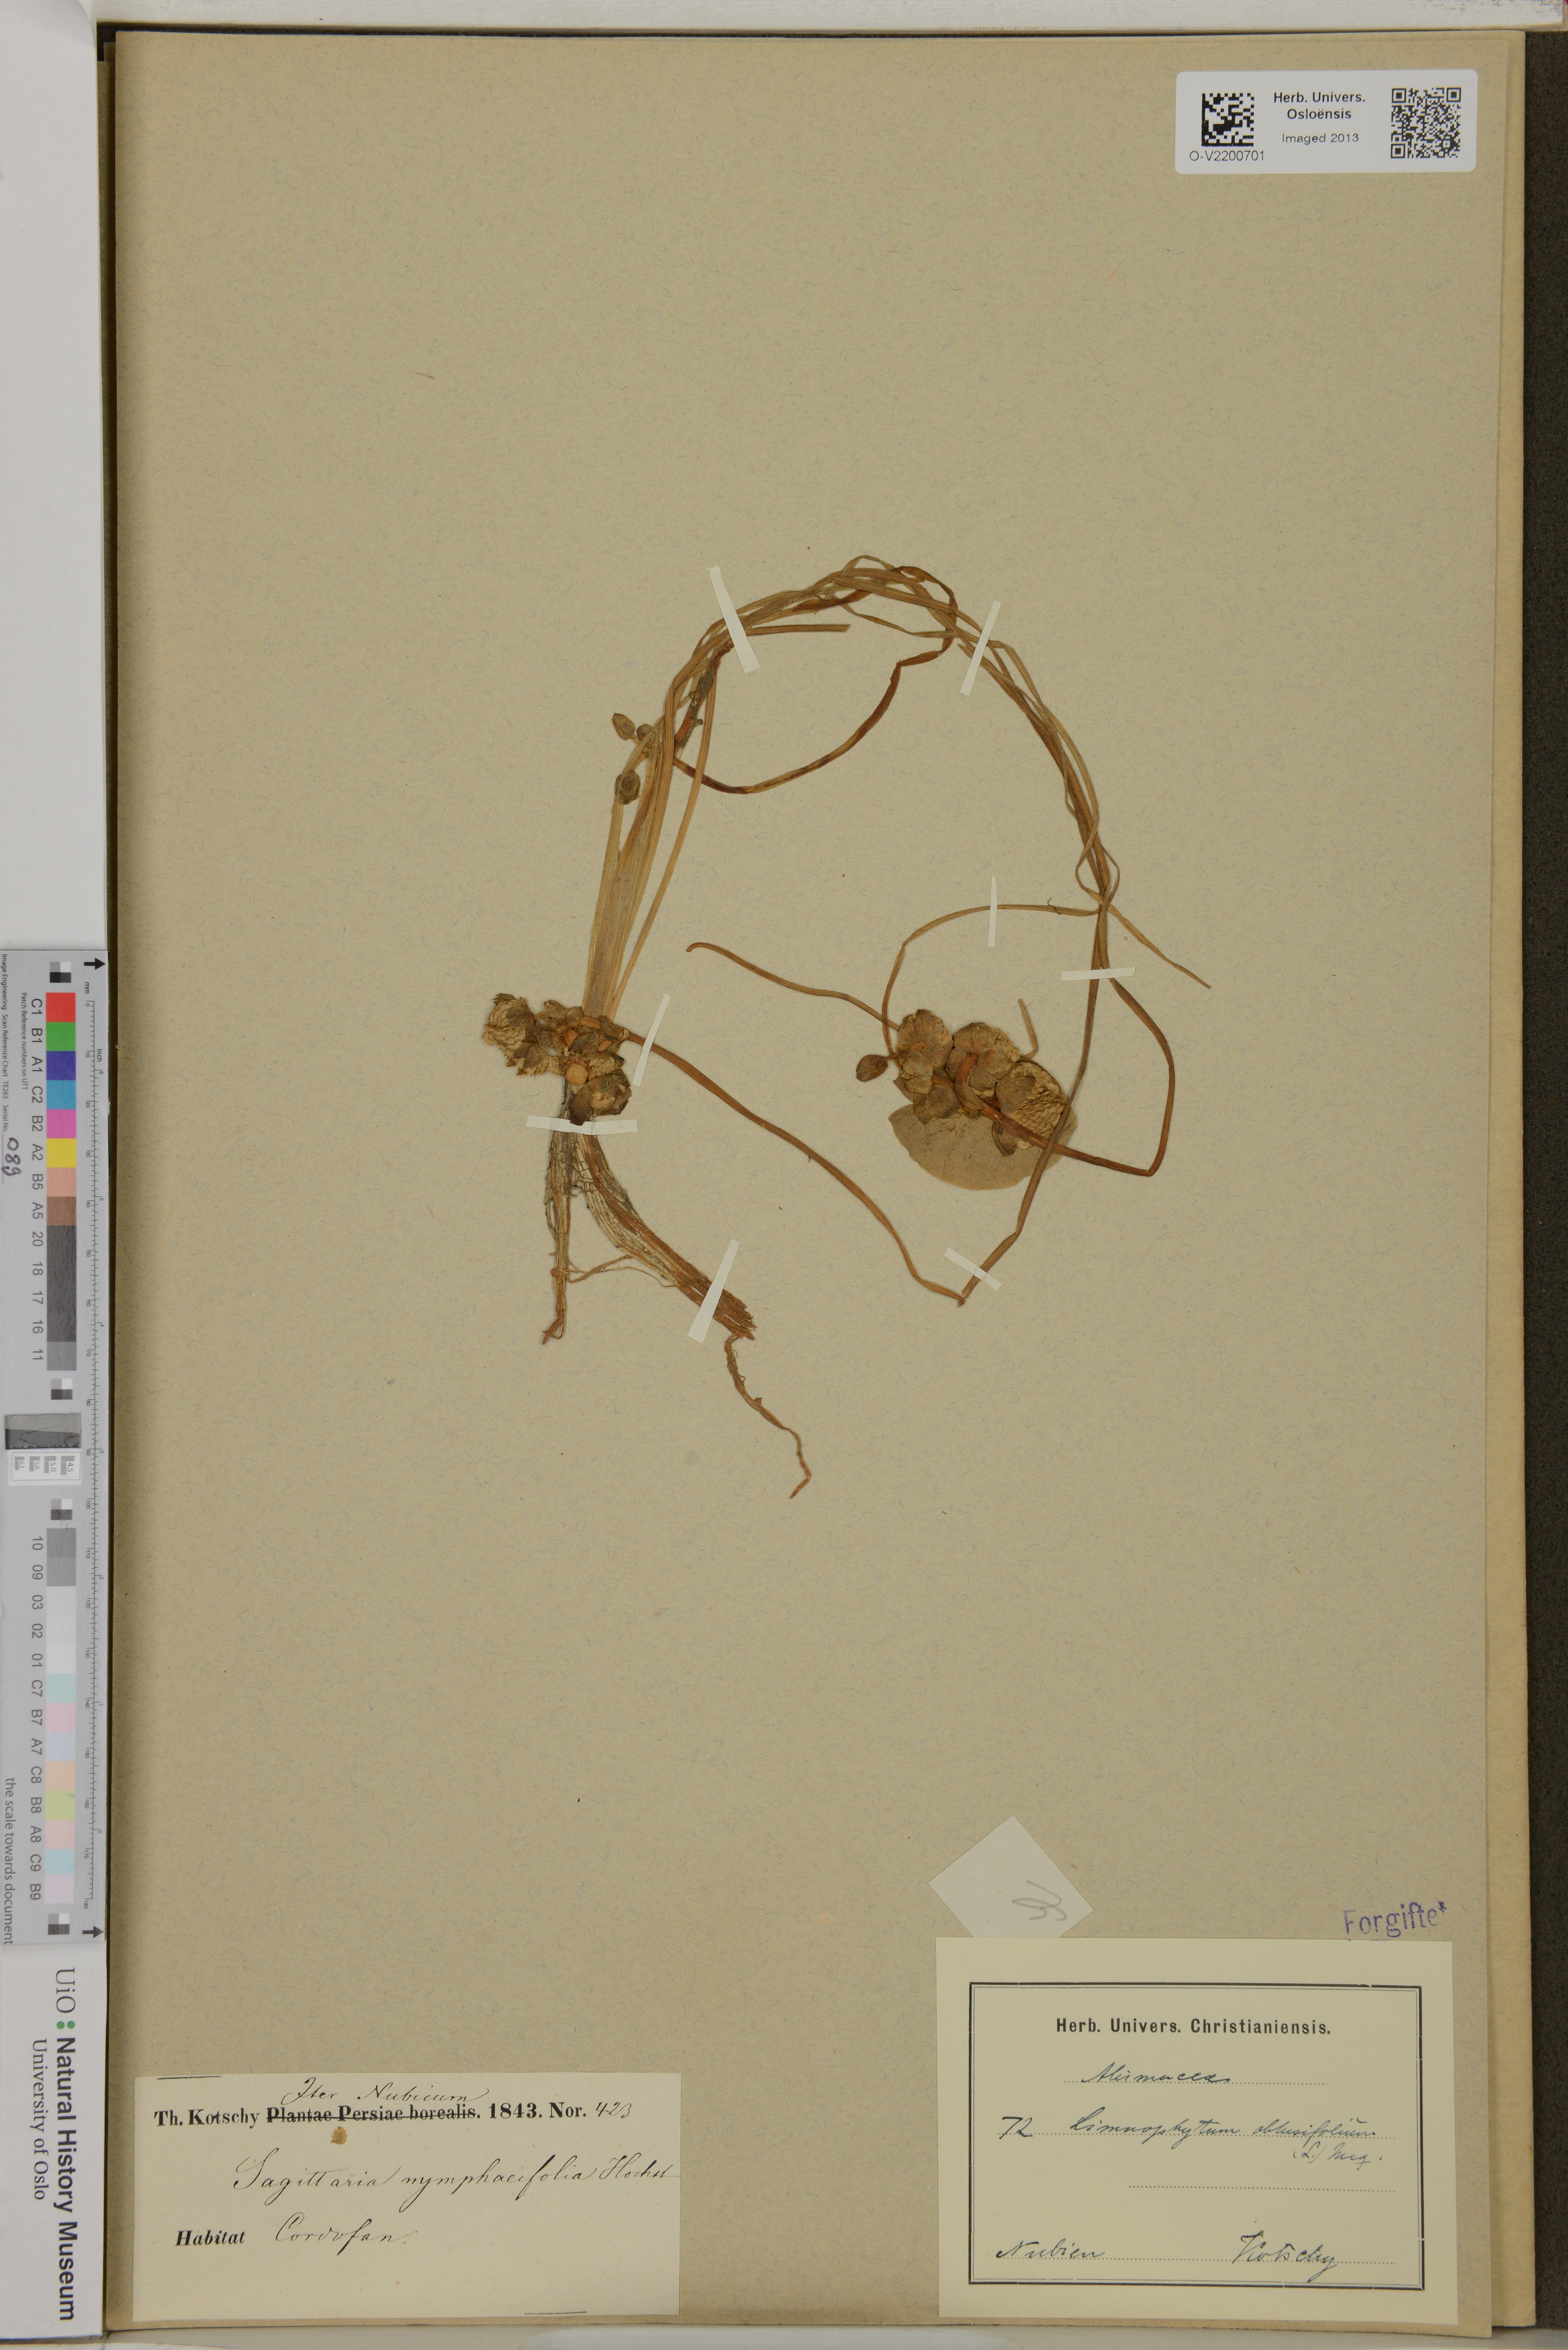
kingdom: Plantae
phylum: Tracheophyta
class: Liliopsida
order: Alismatales
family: Alismataceae
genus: Limnophyton
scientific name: Limnophyton obtusifolium
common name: Arrow head
